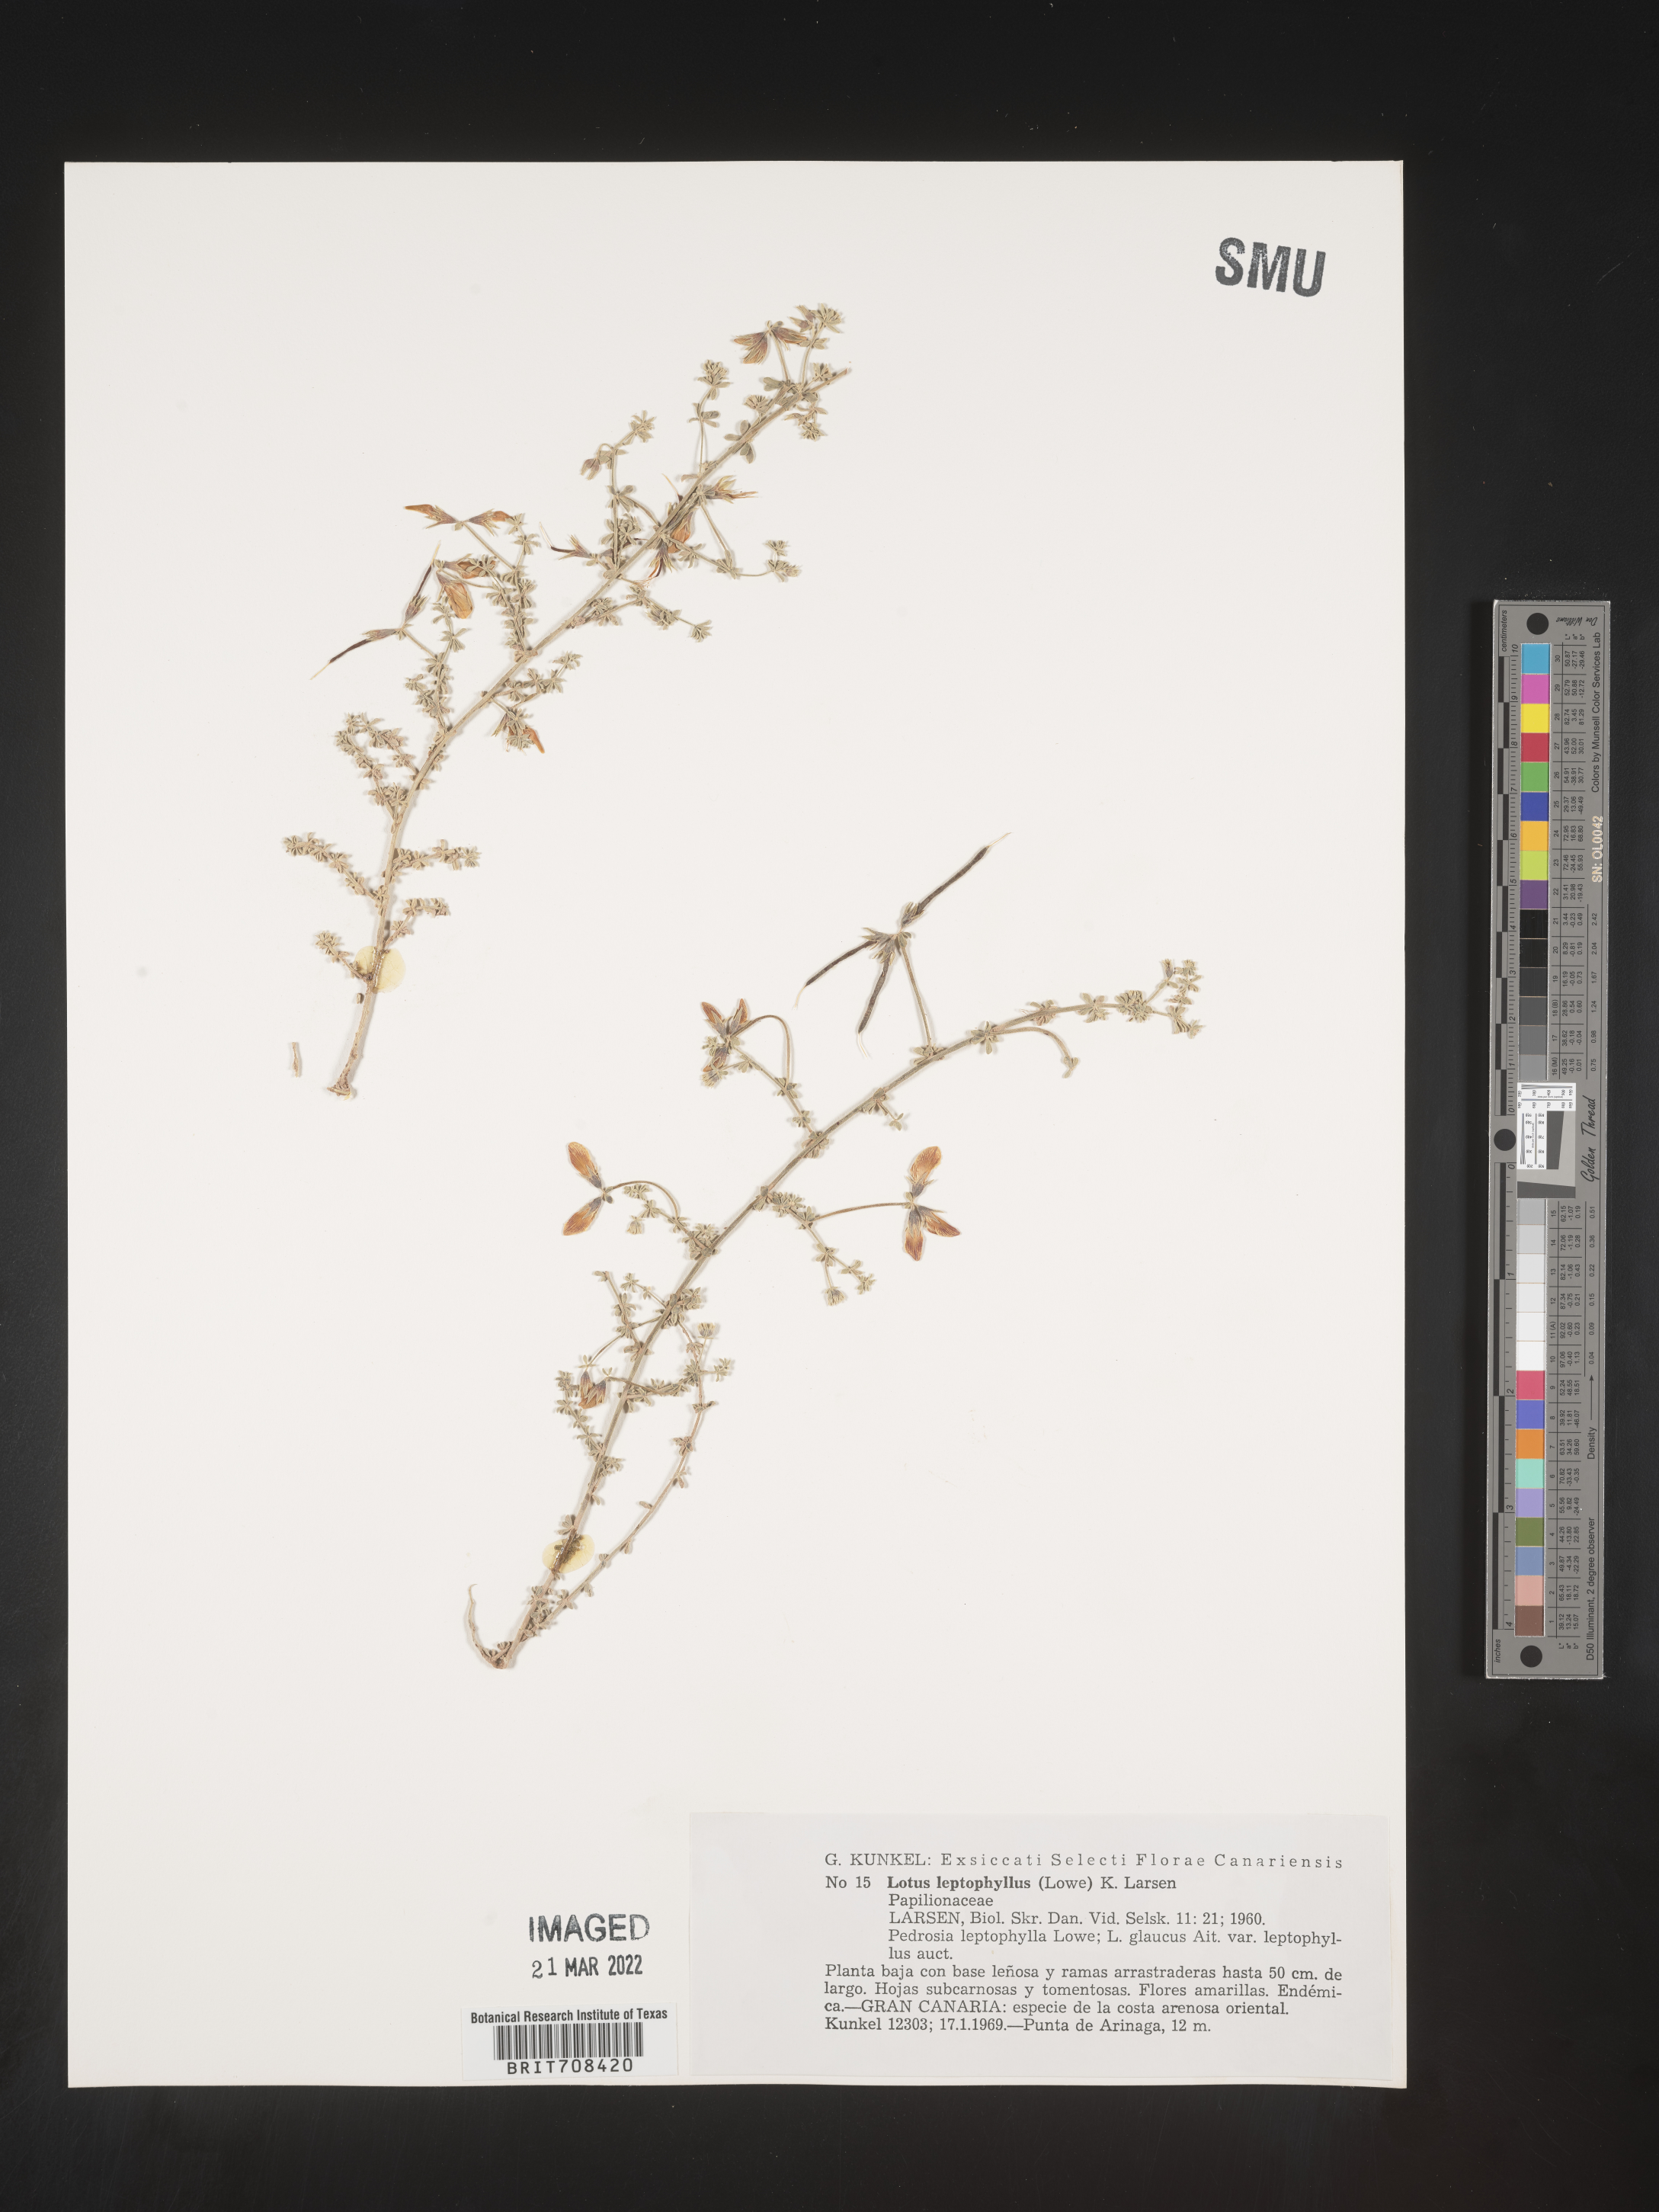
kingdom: Plantae
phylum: Tracheophyta
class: Magnoliopsida
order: Fabales
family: Fabaceae
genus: Lotus
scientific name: Lotus
